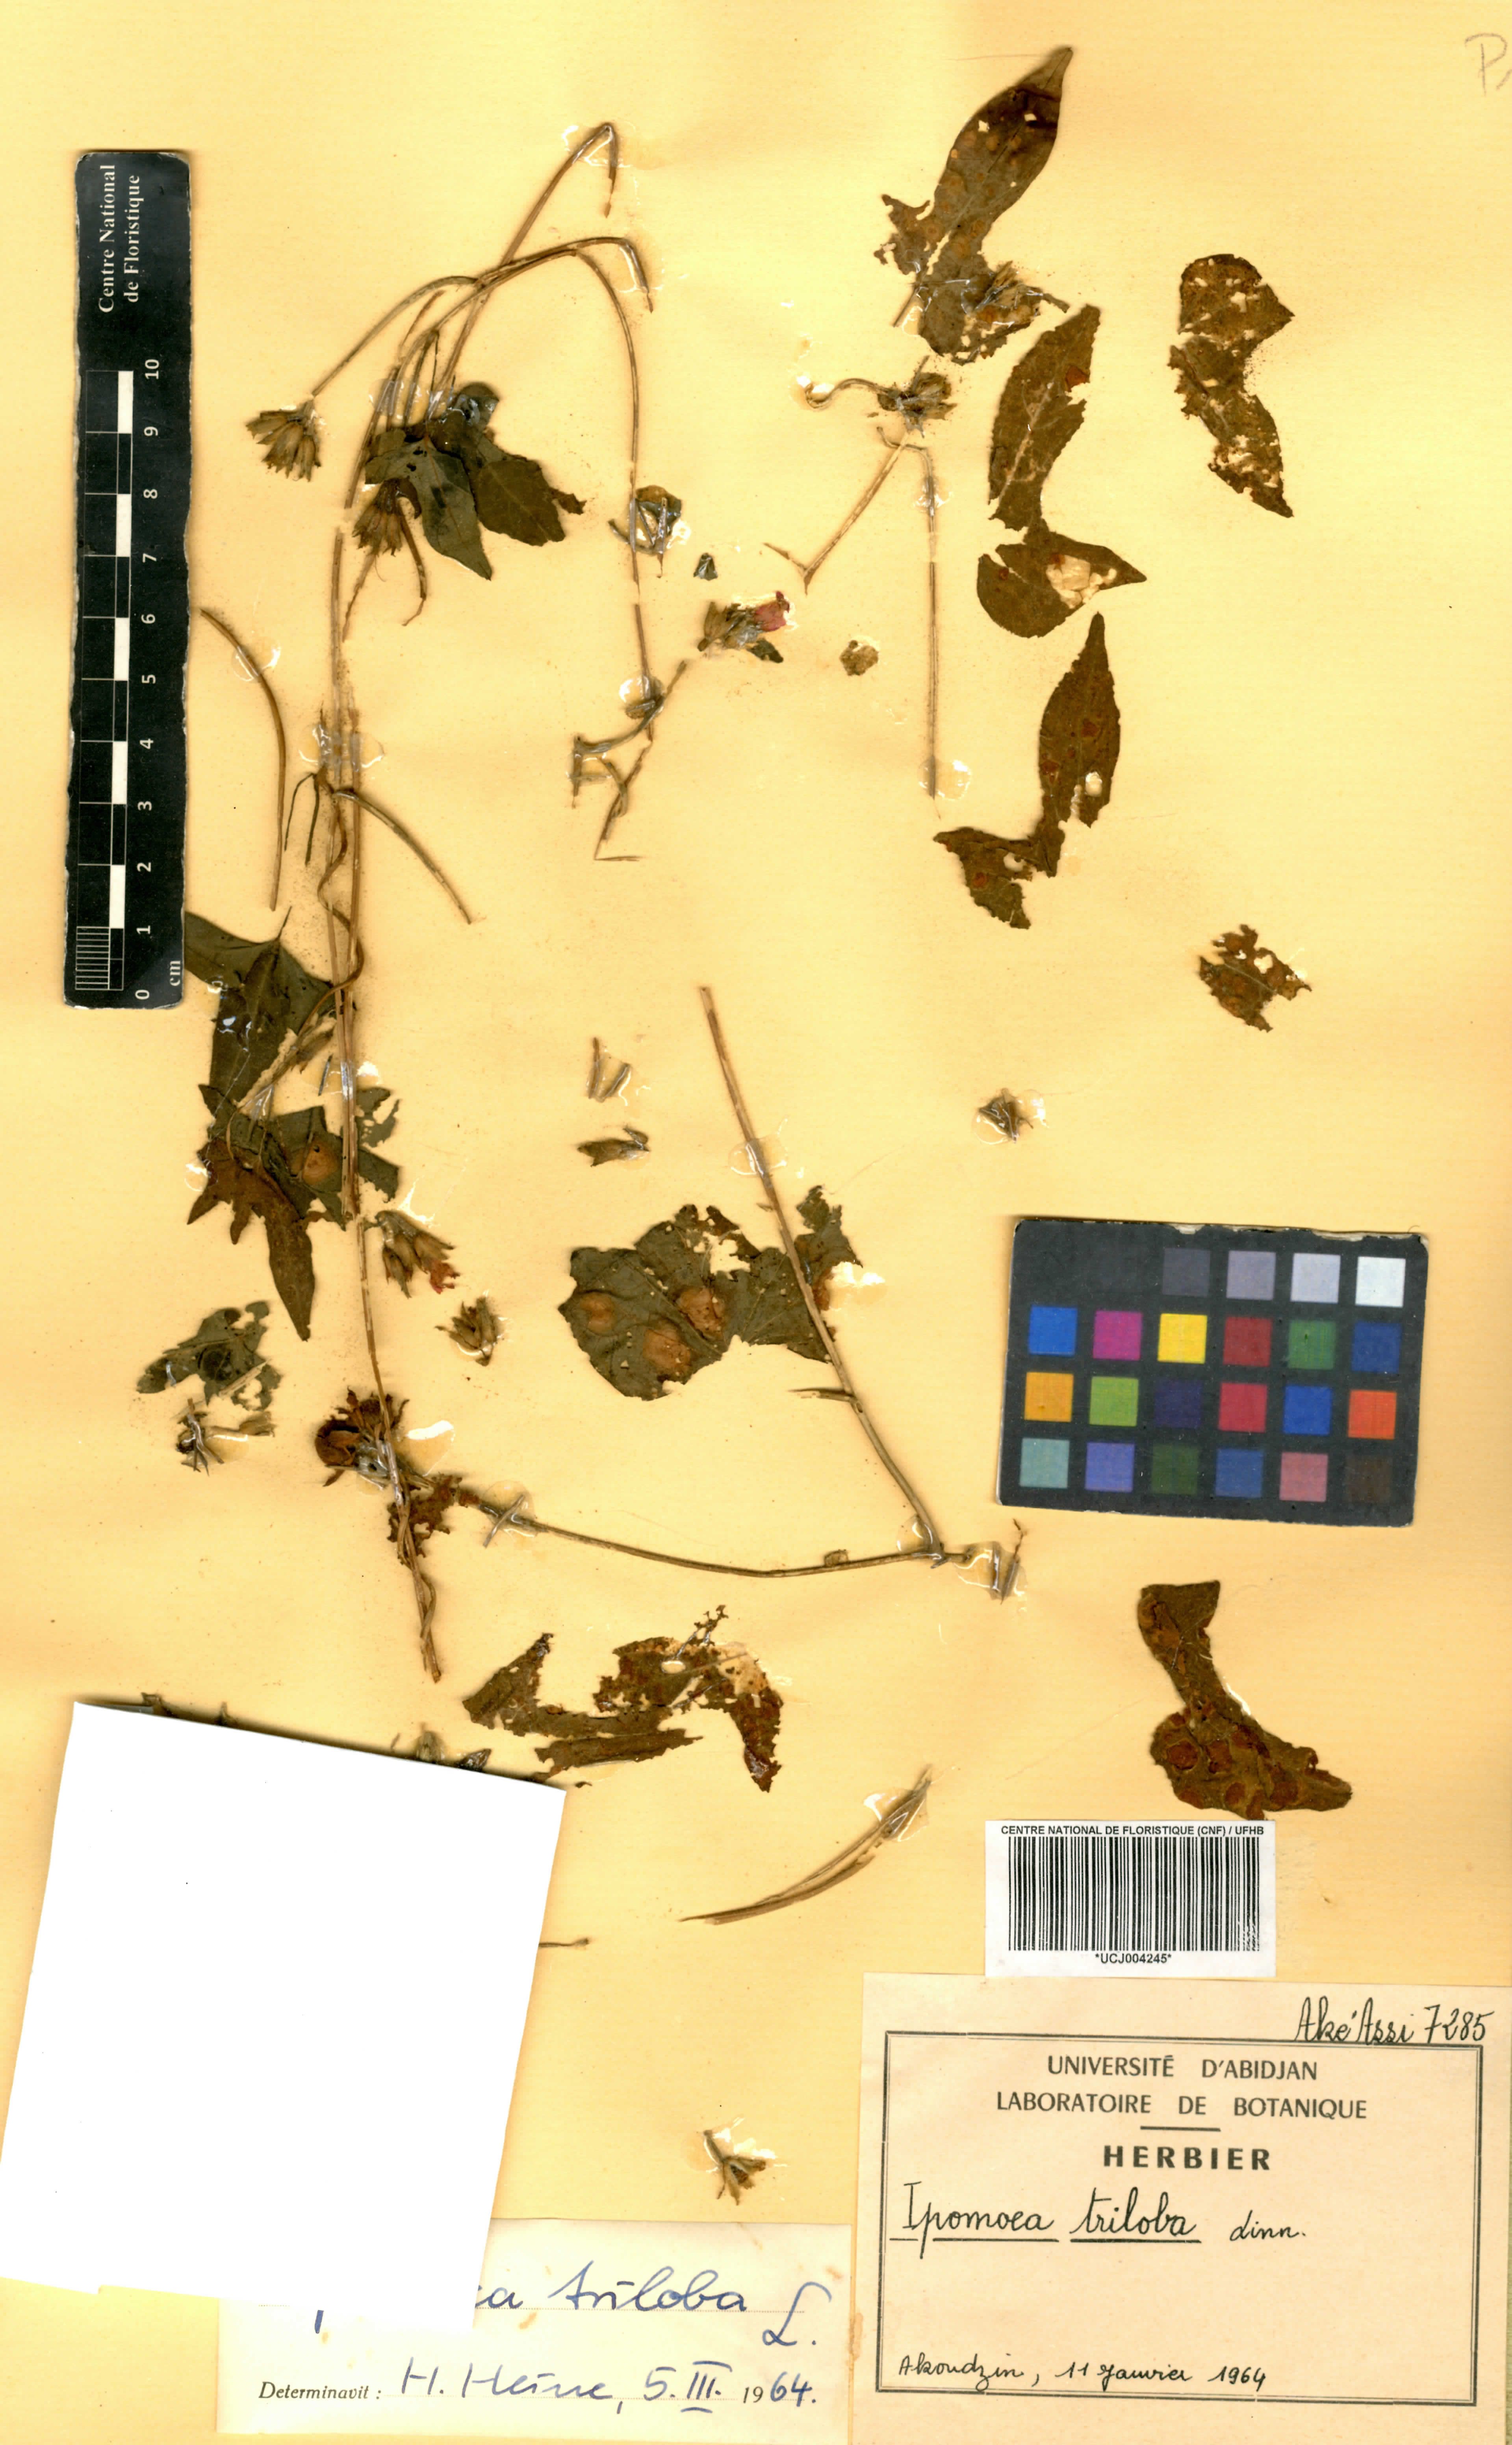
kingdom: Plantae
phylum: Tracheophyta
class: Magnoliopsida
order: Solanales
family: Convolvulaceae
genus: Ipomoea
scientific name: Ipomoea triloba
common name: Little-bell
